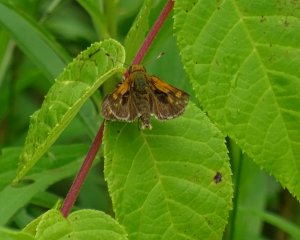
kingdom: Animalia
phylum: Arthropoda
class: Insecta
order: Lepidoptera
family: Hesperiidae
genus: Polites
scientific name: Polites themistocles
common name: Tawny-edged Skipper
